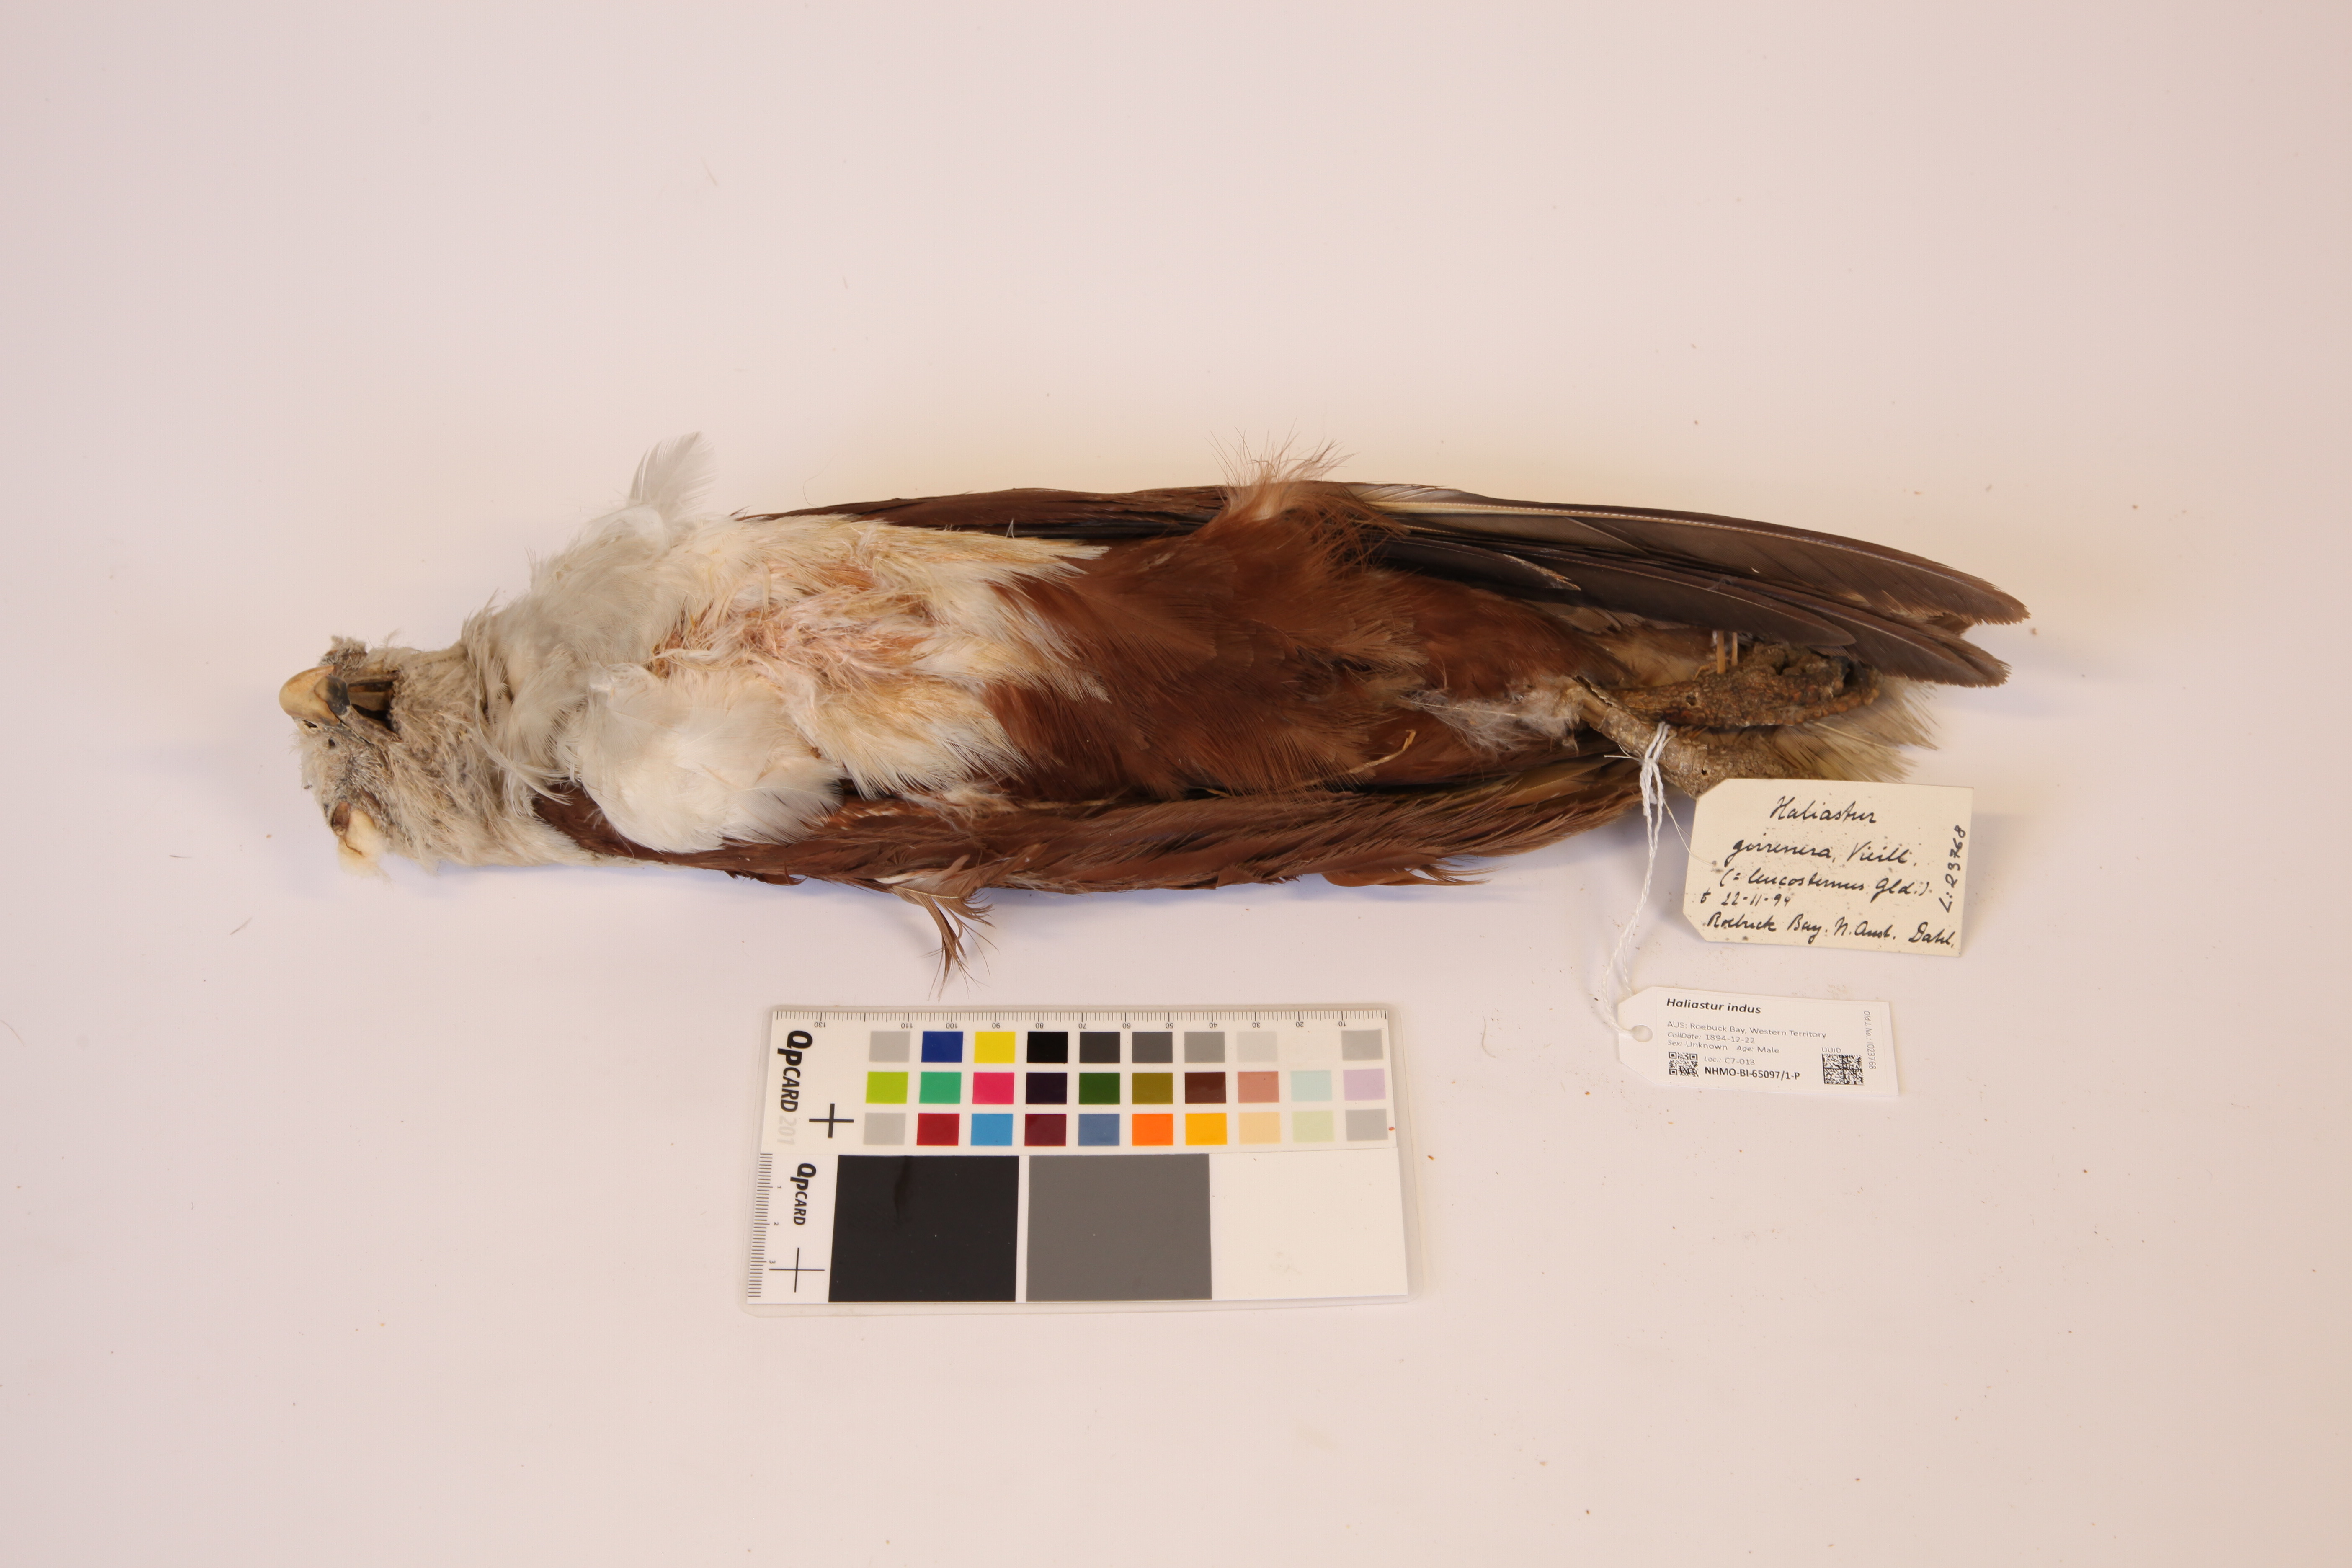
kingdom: Animalia
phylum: Chordata
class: Aves
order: Accipitriformes
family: Accipitridae
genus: Haliastur
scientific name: Haliastur indus
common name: Brahminy kite
